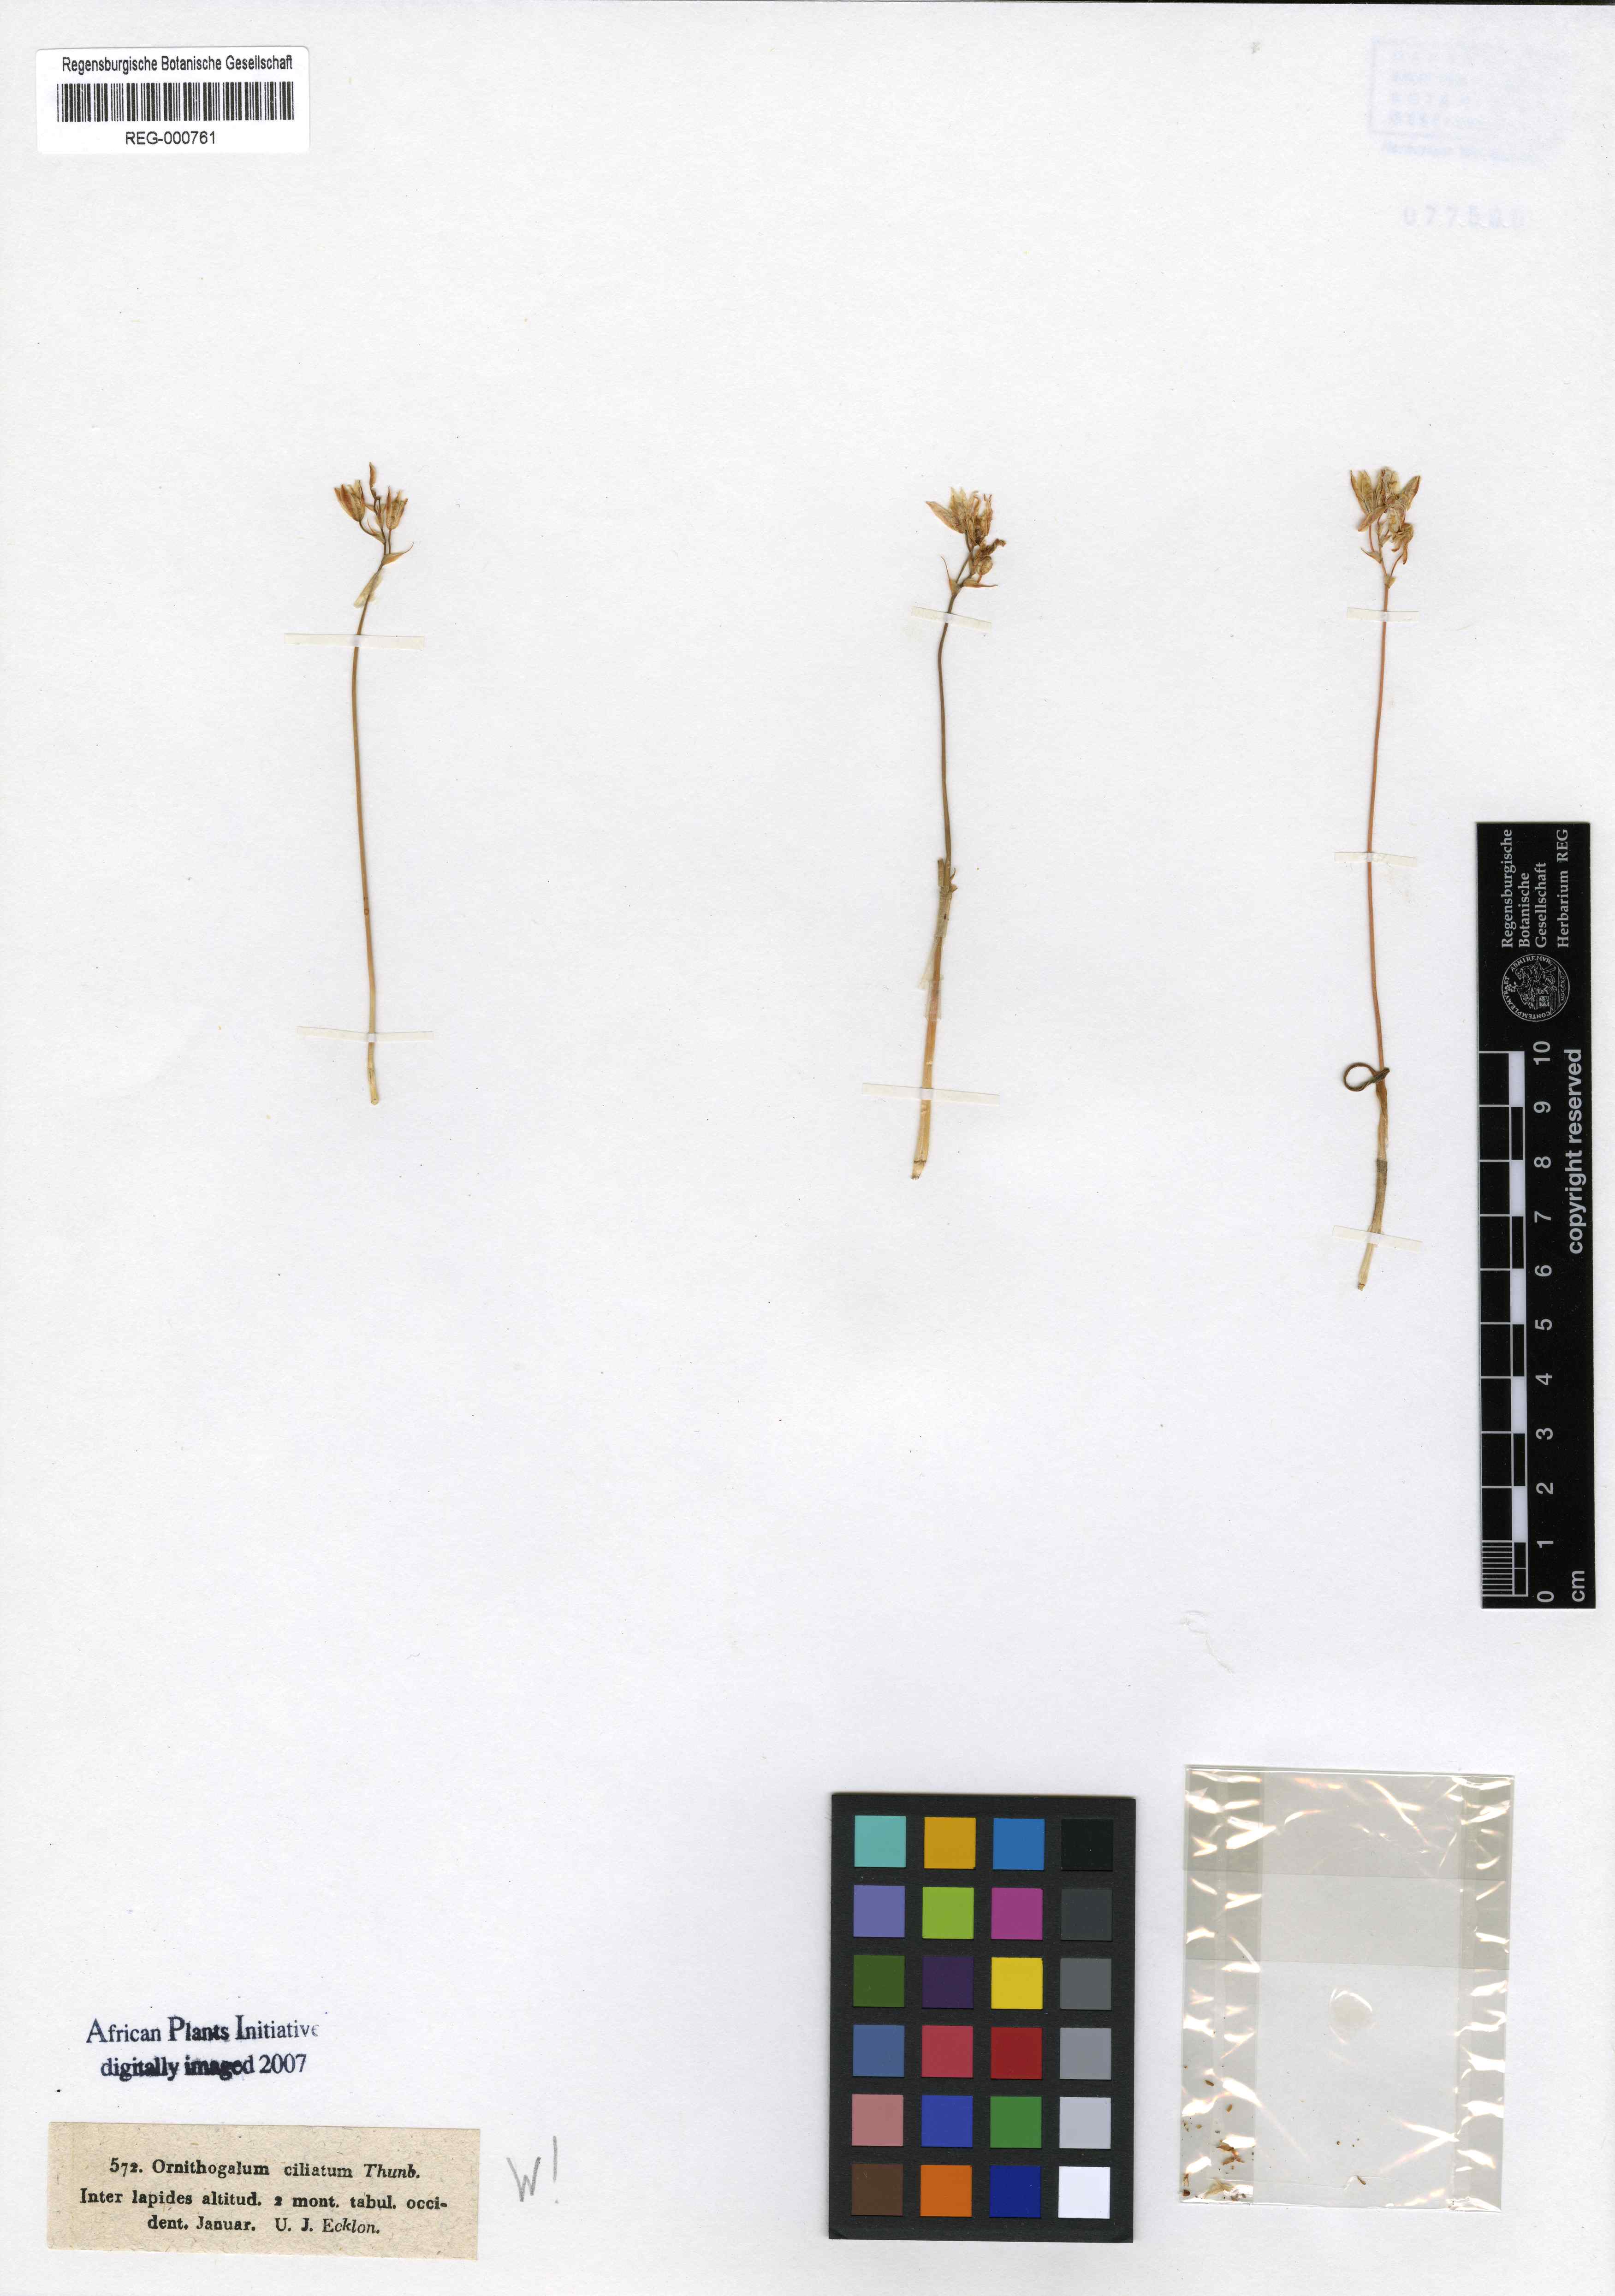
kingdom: Plantae
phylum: Tracheophyta
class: Liliopsida
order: Asparagales
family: Asparagaceae
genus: Drimia
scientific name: Drimia ciliata
